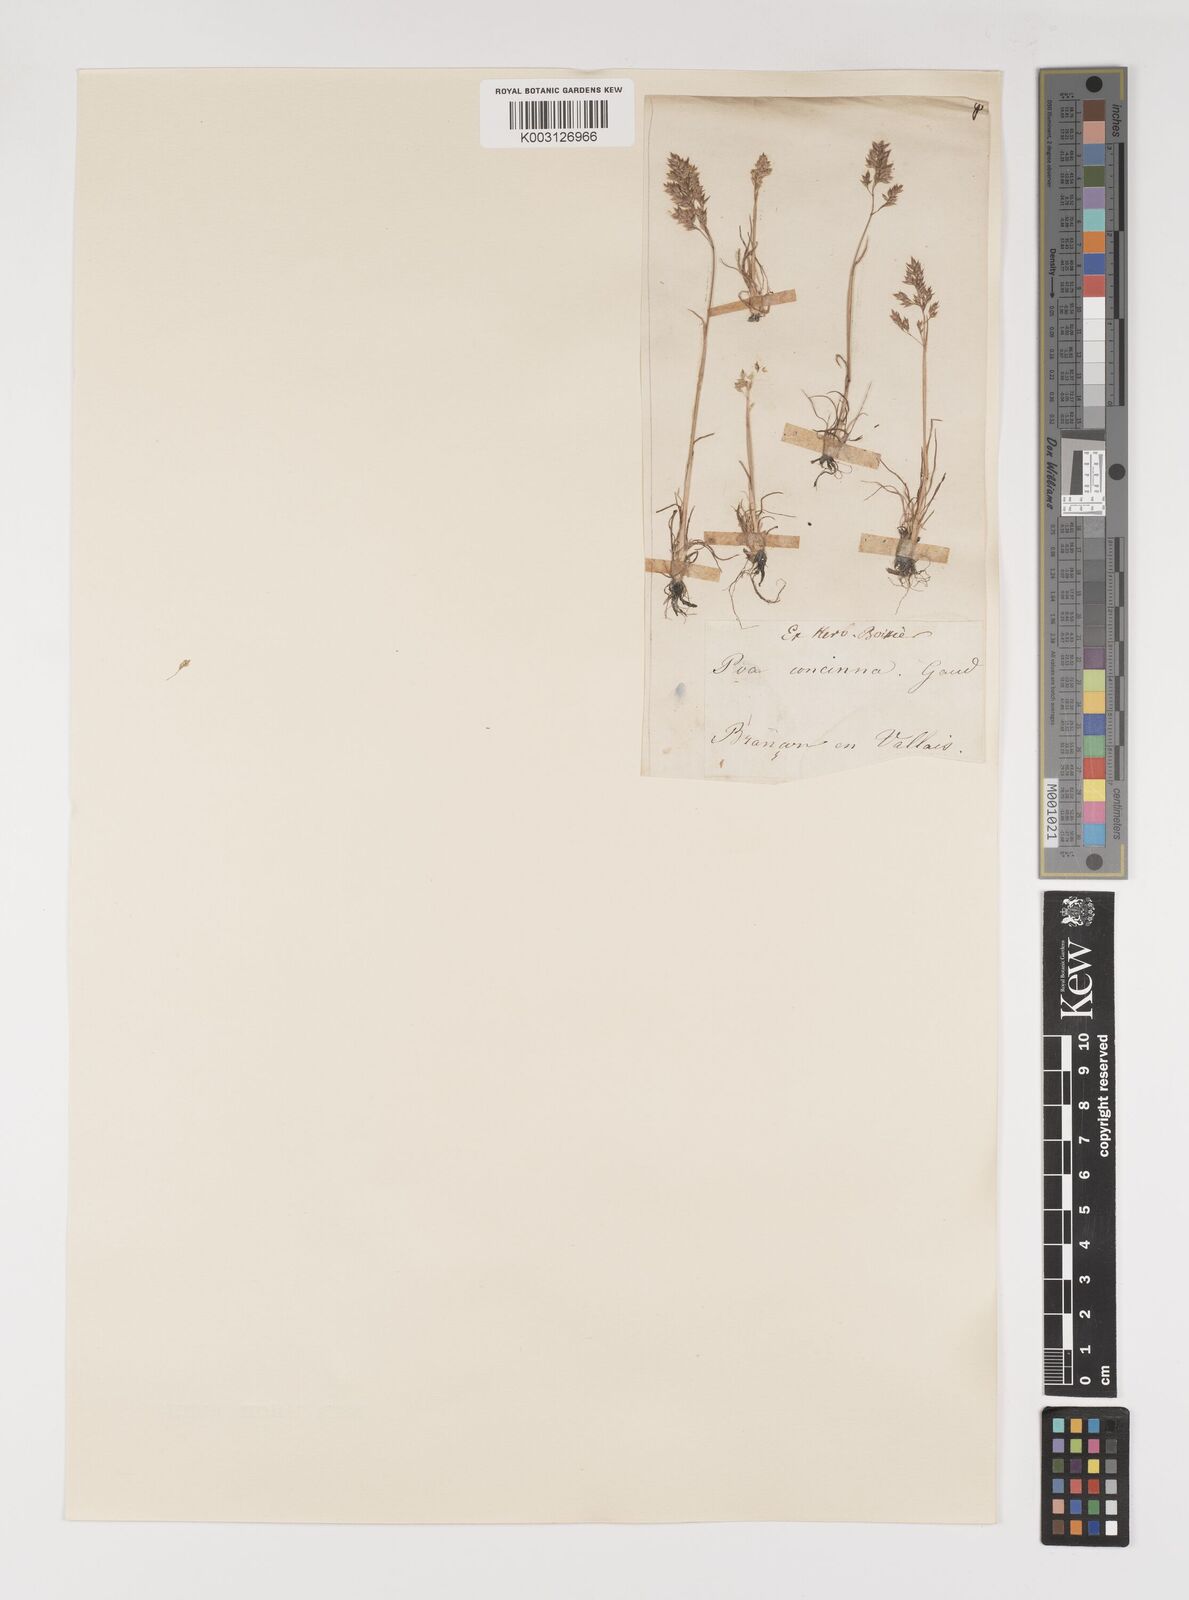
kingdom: Plantae
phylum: Tracheophyta
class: Liliopsida
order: Poales
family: Poaceae
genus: Poa
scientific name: Poa perconcinna
